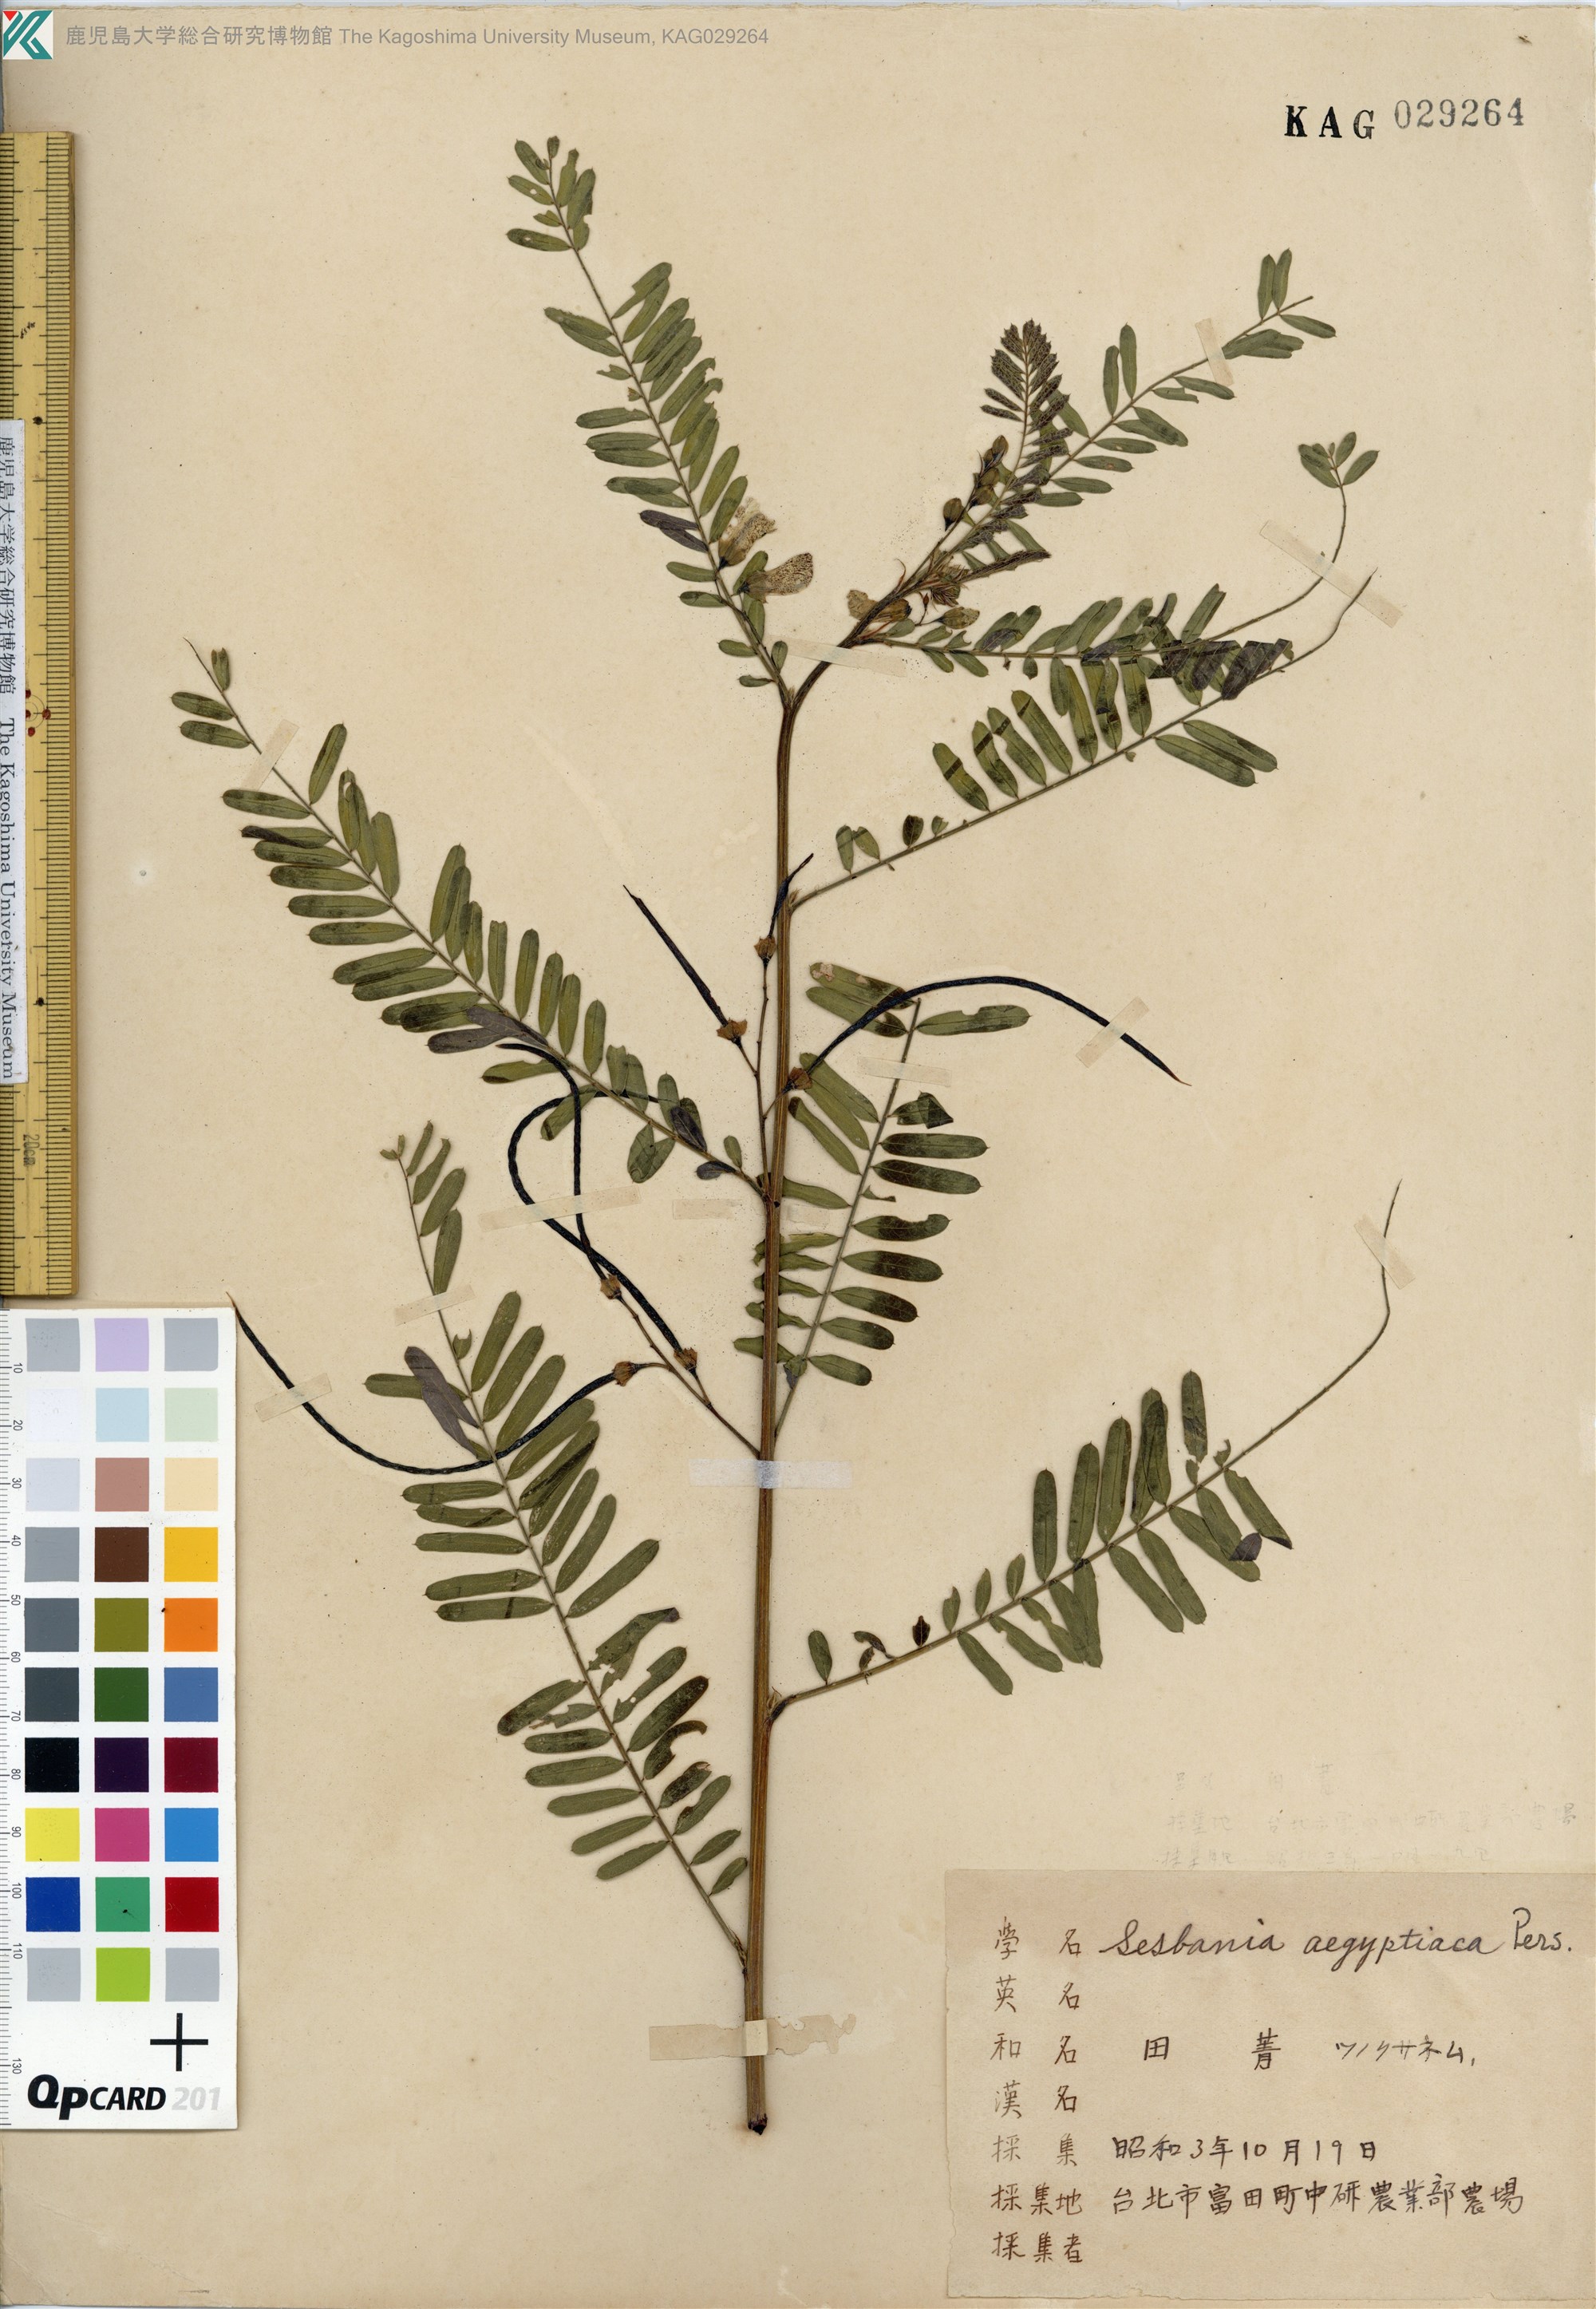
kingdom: Plantae
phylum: Tracheophyta
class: Magnoliopsida
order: Fabales
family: Fabaceae
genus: Sesbania
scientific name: Sesbania cannabina
